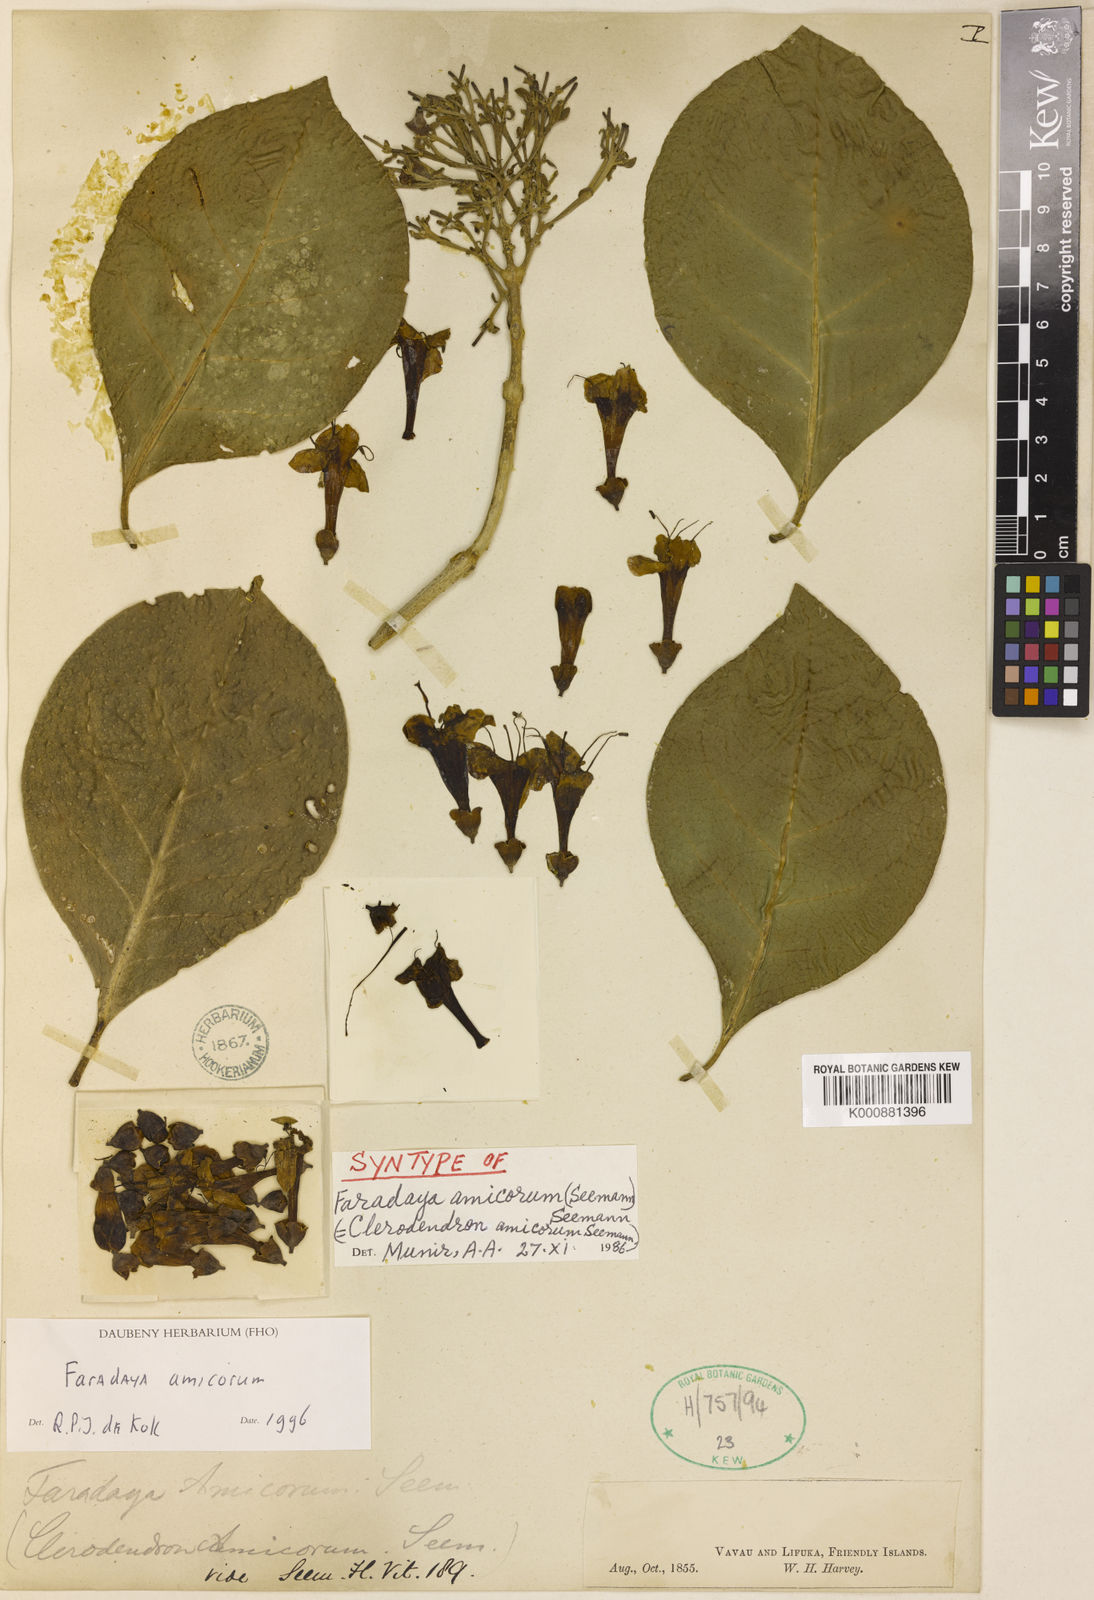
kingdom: Plantae
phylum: Tracheophyta
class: Magnoliopsida
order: Lamiales
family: Lamiaceae
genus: Oxera
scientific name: Oxera amicorum
